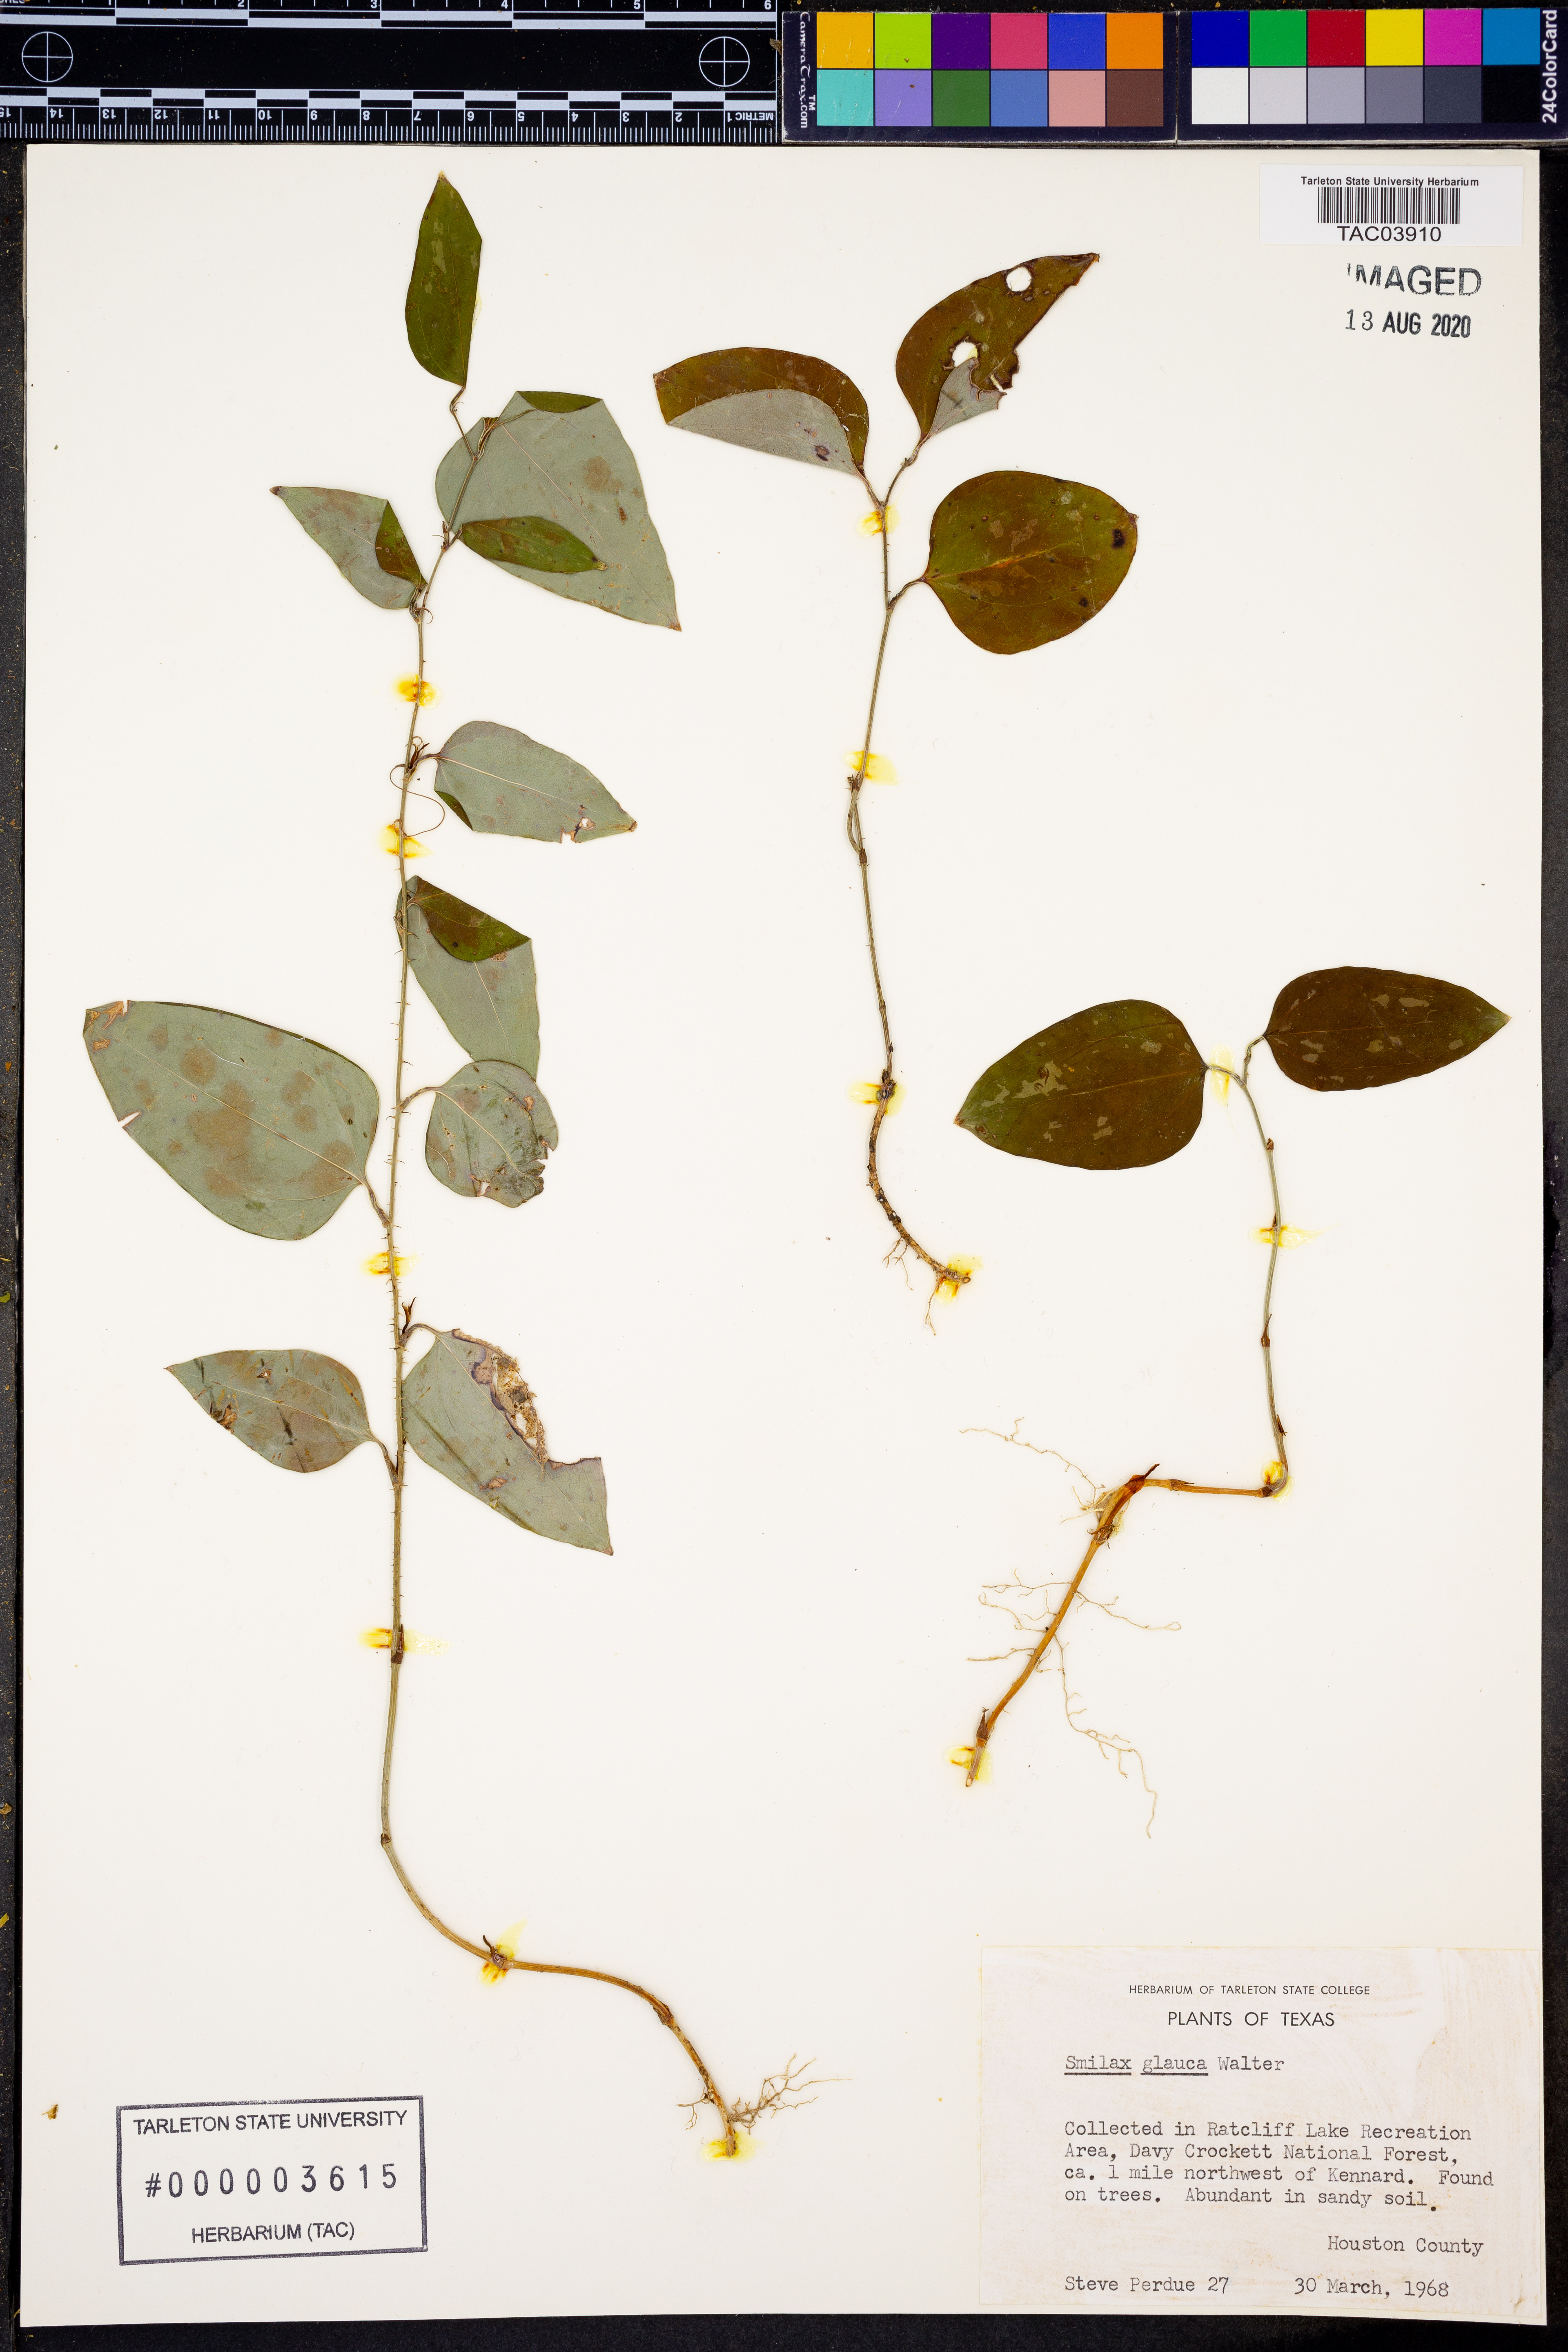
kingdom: Plantae
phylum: Tracheophyta
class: Liliopsida
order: Liliales
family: Smilacaceae
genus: Smilax
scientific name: Smilax glauca
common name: Cat greenbrier
